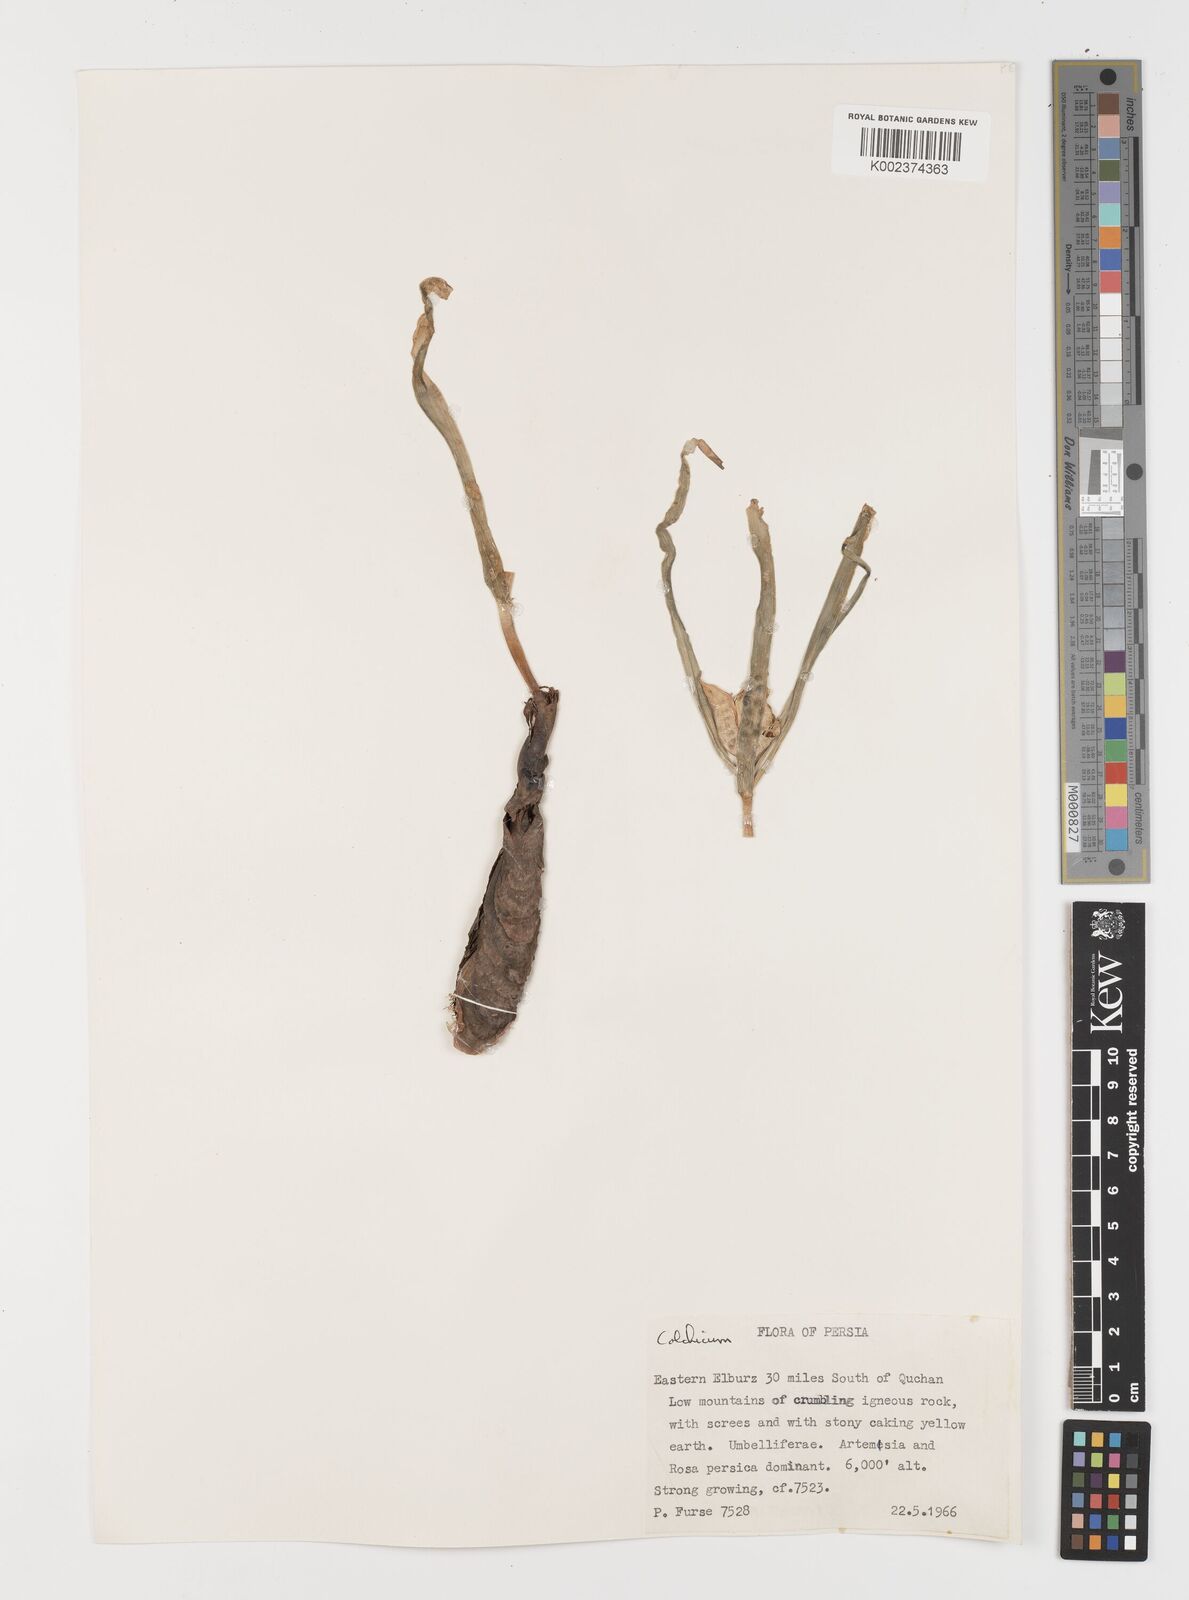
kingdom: Plantae
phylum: Tracheophyta
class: Liliopsida
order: Liliales
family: Colchicaceae
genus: Colchicum
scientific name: Colchicum
